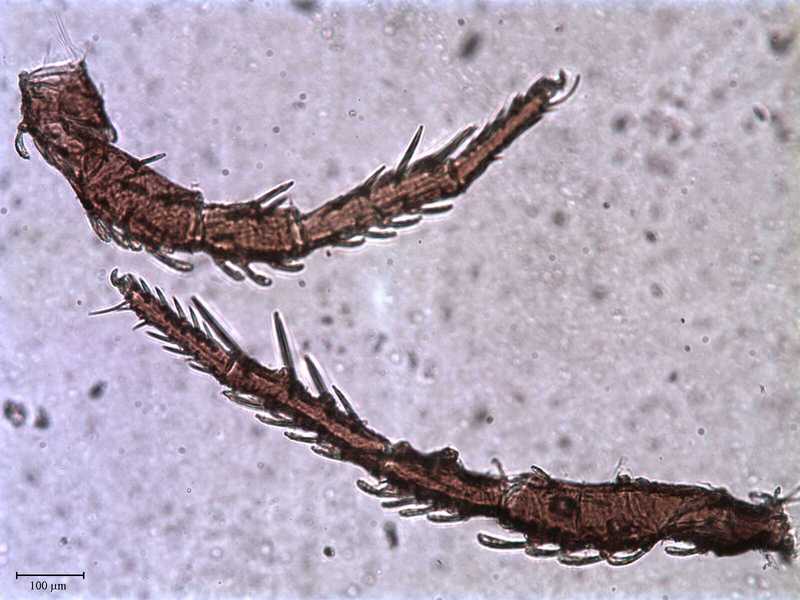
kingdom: Animalia
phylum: Arthropoda
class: Arachnida
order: Trombidiformes
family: Caeculidae
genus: Caeculus
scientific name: Caeculus
